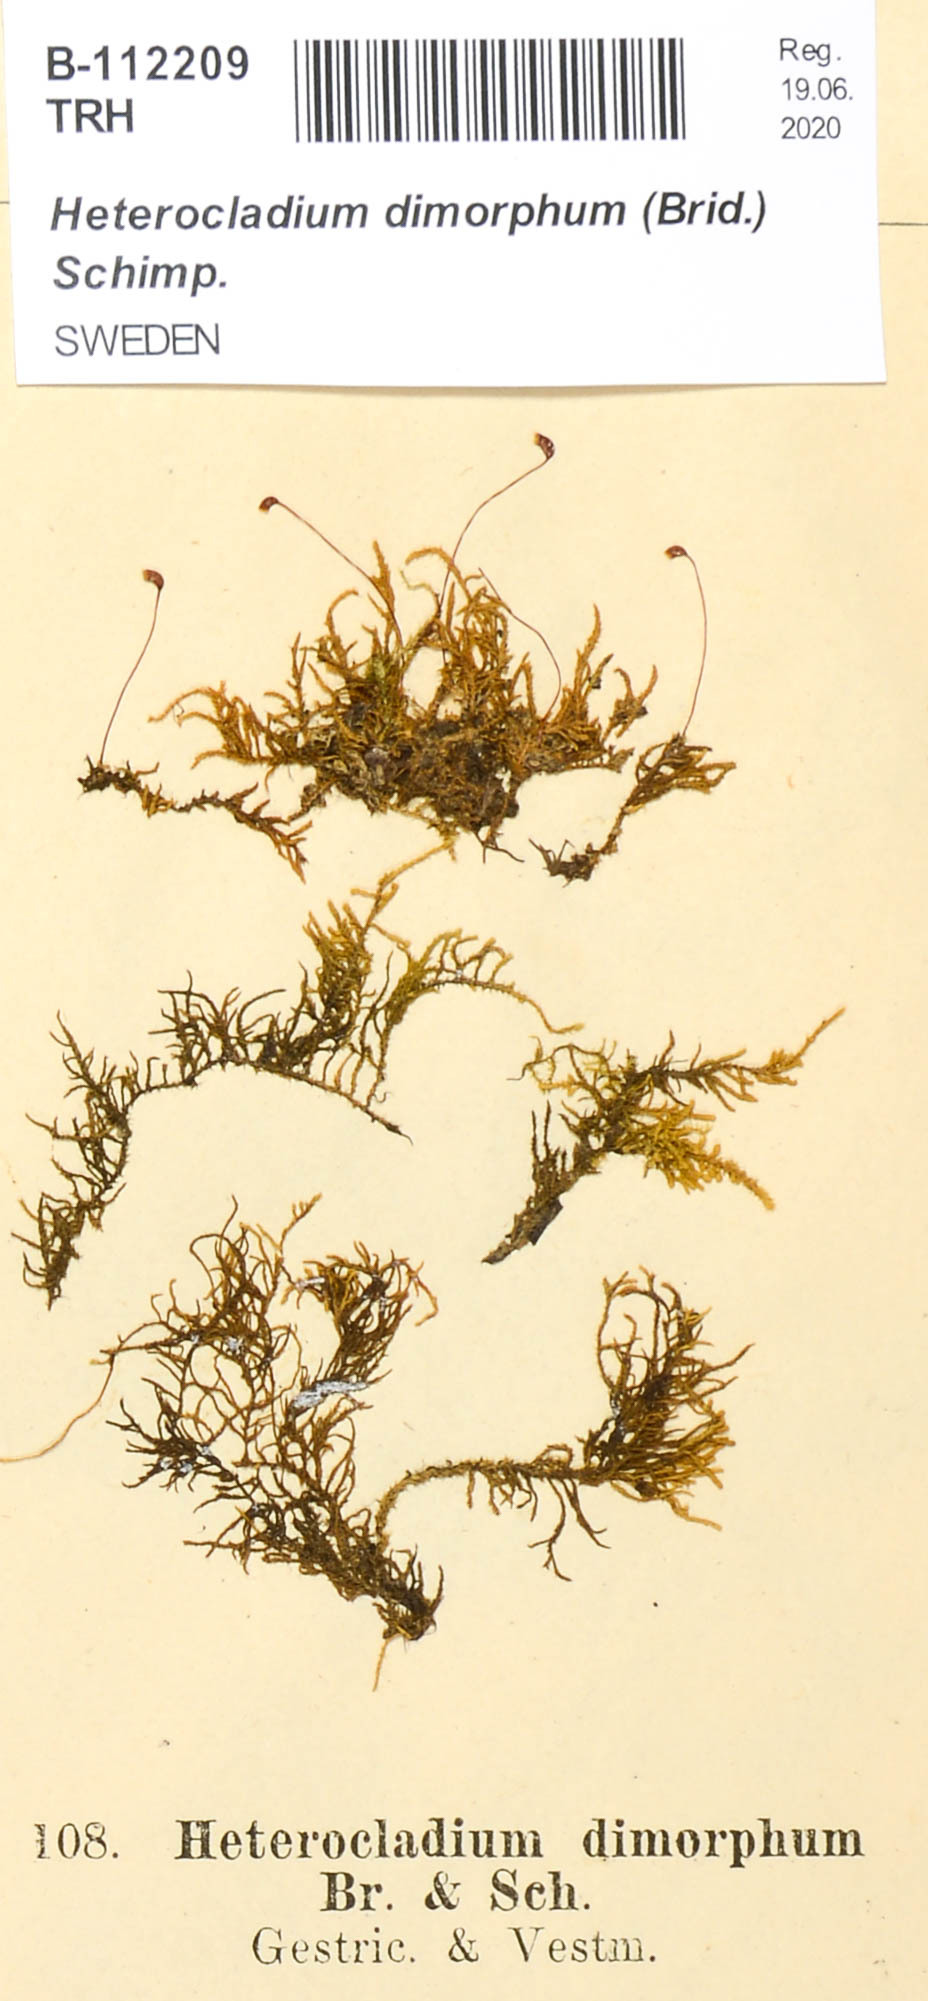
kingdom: Plantae
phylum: Bryophyta
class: Bryopsida
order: Hypnales
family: Heterocladiellaceae
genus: Heterocladiella
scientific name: Heterocladiella dimorpha
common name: Dimorphous tamarisk-moss
